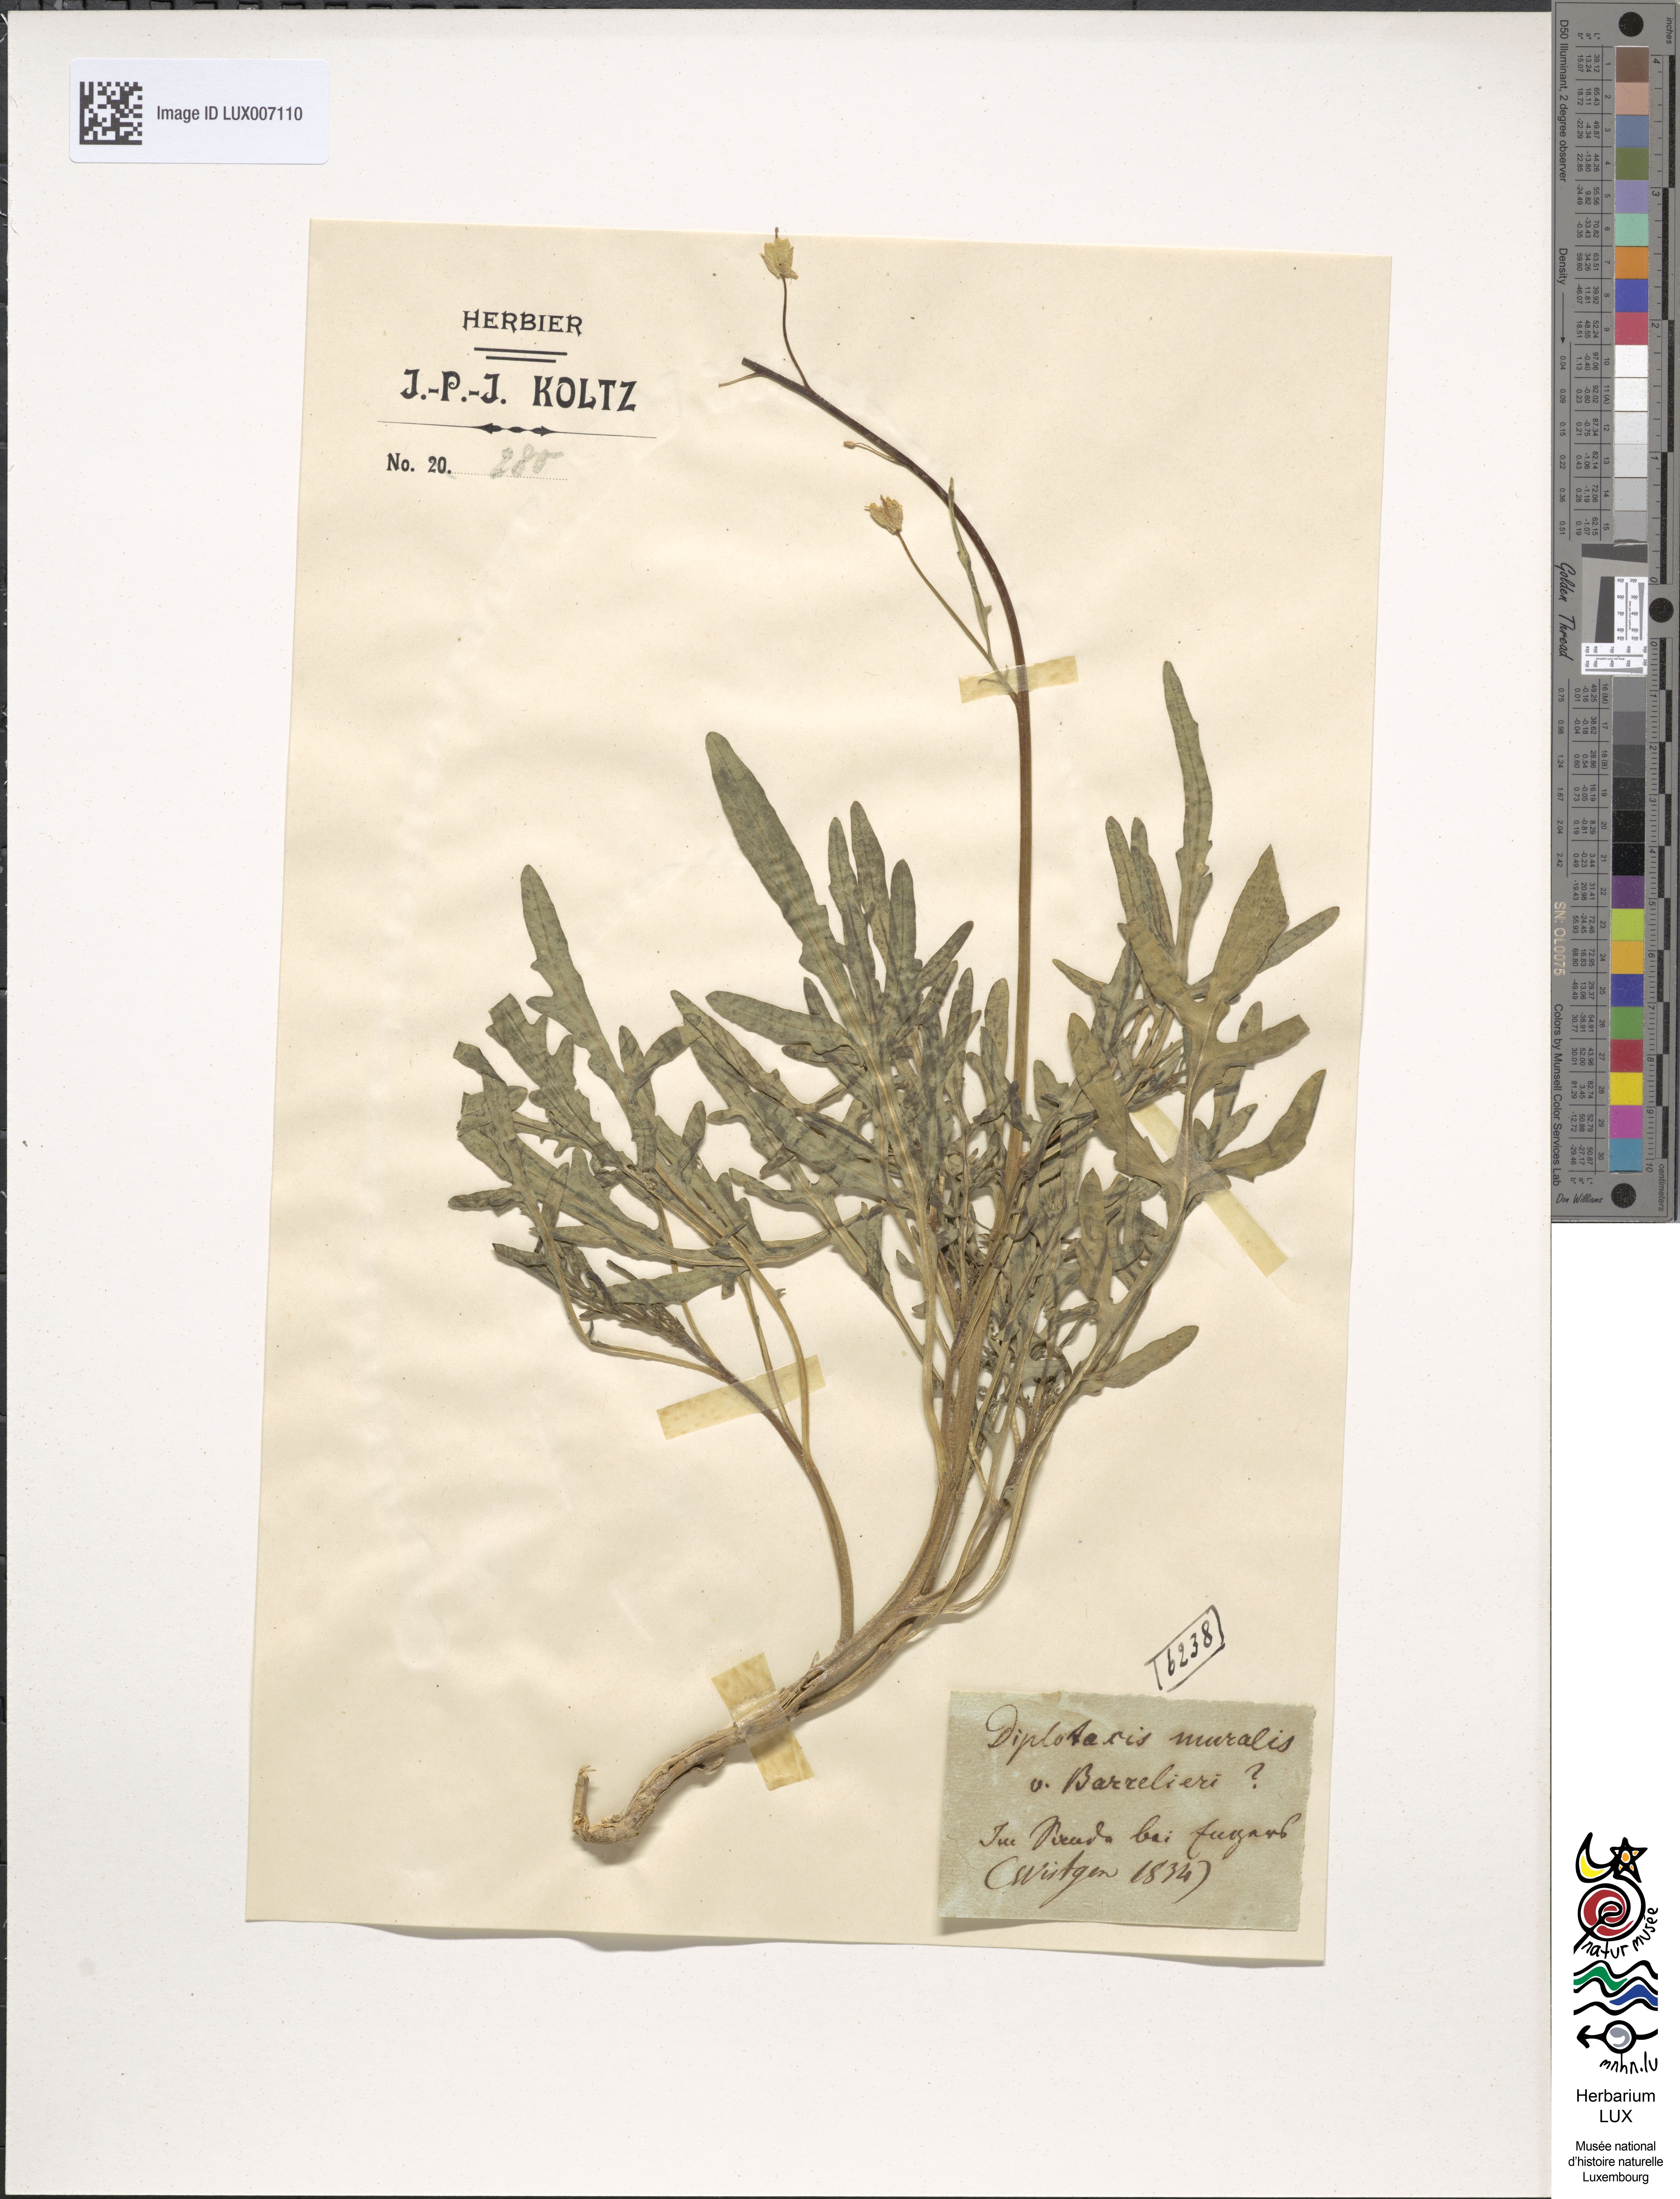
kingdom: Plantae
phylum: Tracheophyta
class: Magnoliopsida
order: Brassicales
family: Brassicaceae
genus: Diplotaxis
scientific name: Diplotaxis muralis
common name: Annual wall-rocket
